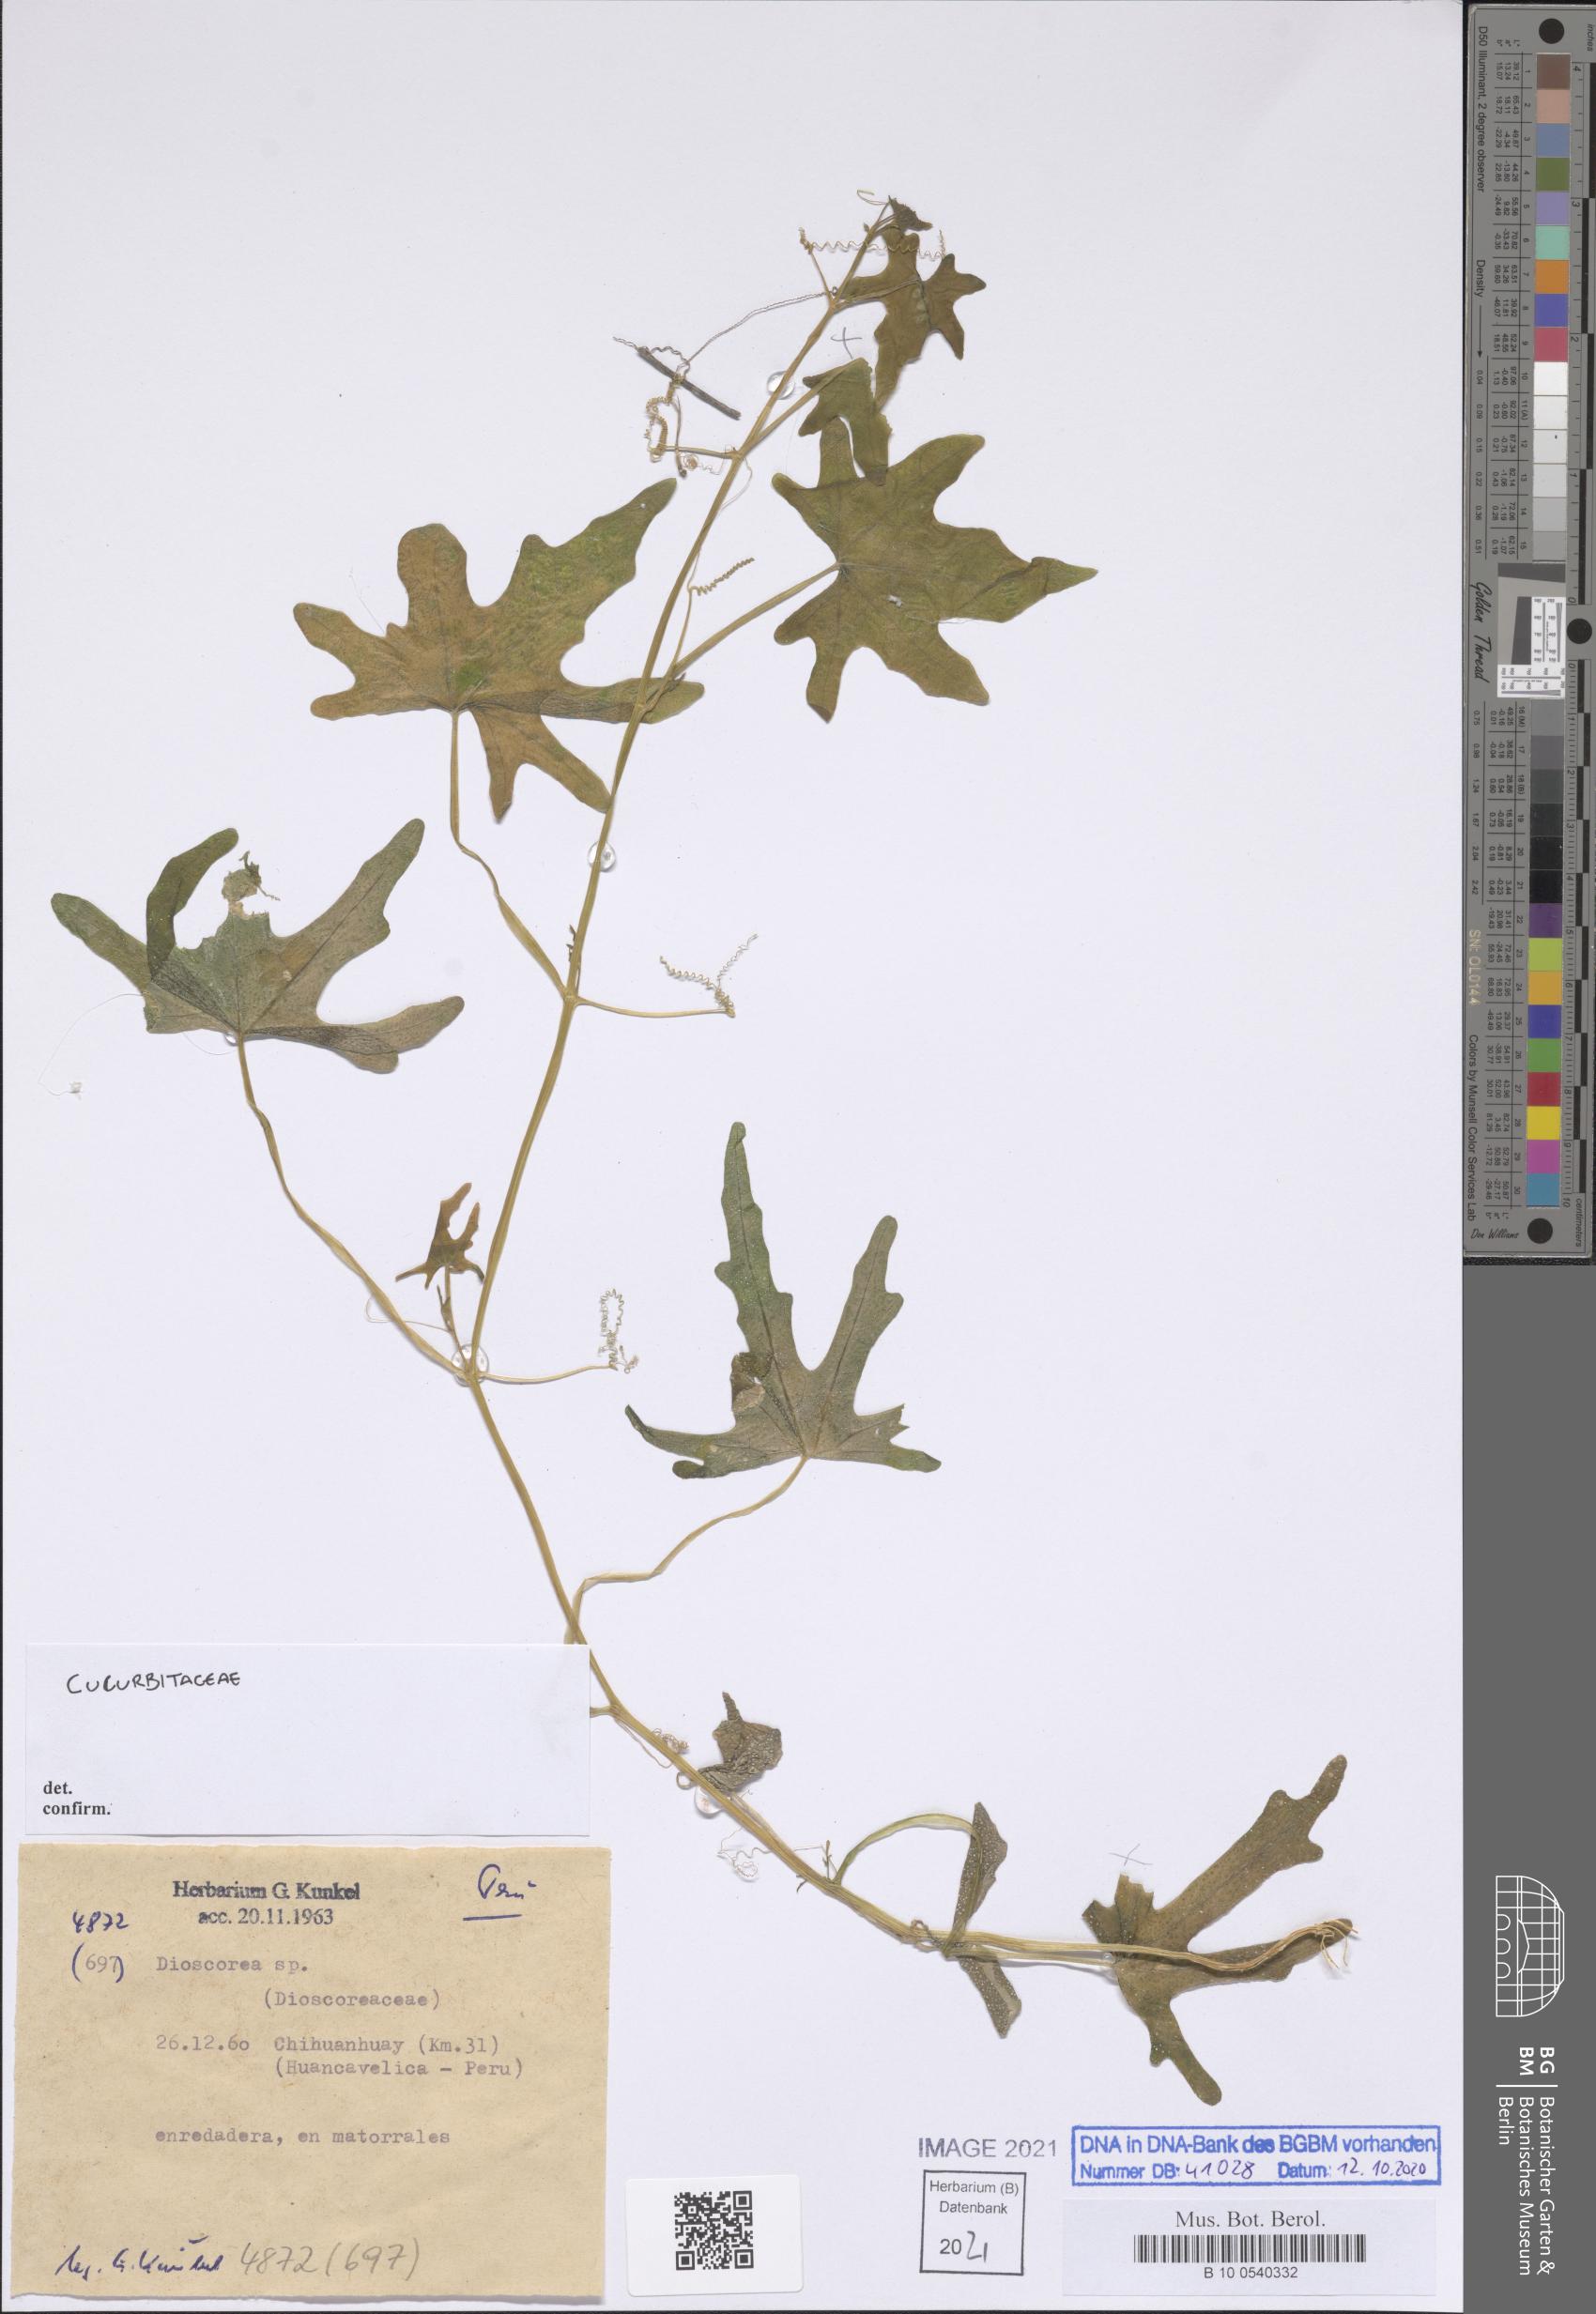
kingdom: Plantae
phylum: Tracheophyta
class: Magnoliopsida
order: Cucurbitales
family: Cucurbitaceae
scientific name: Cucurbitaceae
